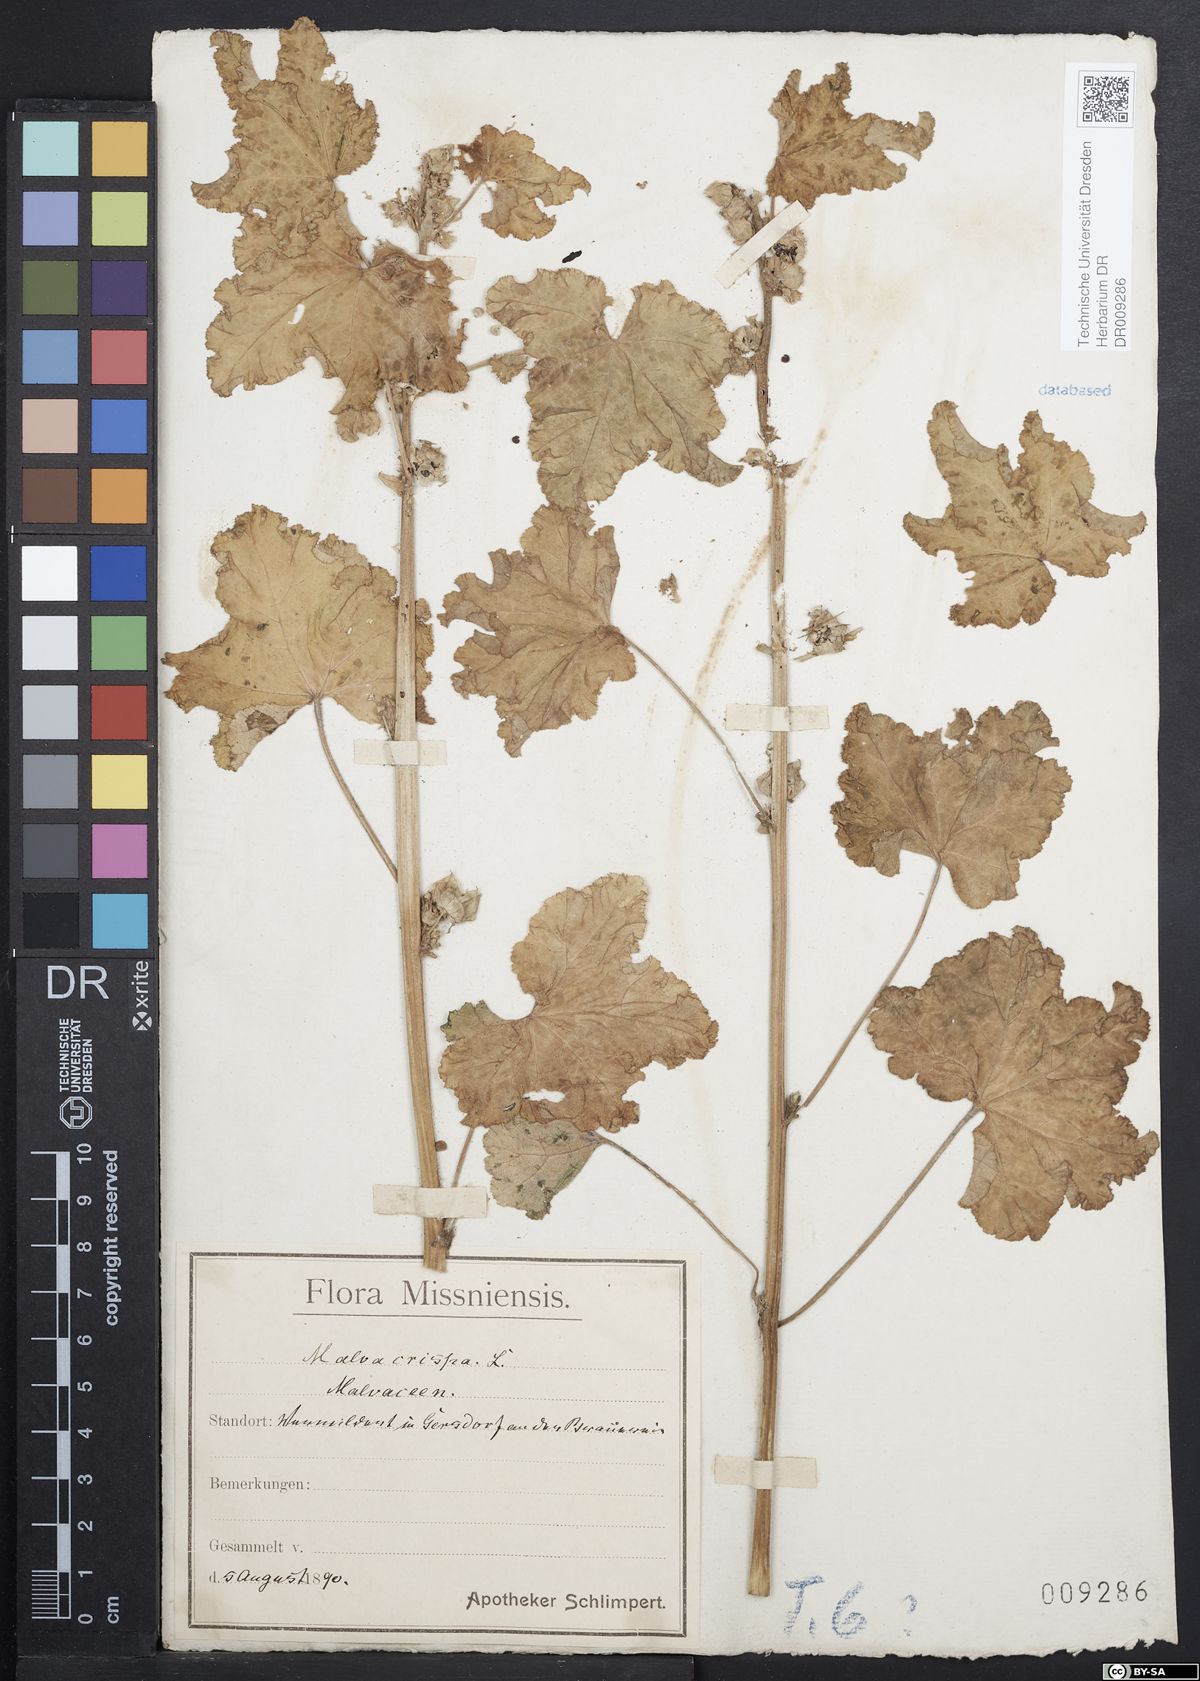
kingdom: Plantae
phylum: Tracheophyta
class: Magnoliopsida
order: Malvales
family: Malvaceae
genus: Malva
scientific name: Malva verticillata
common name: Chinese mallow
